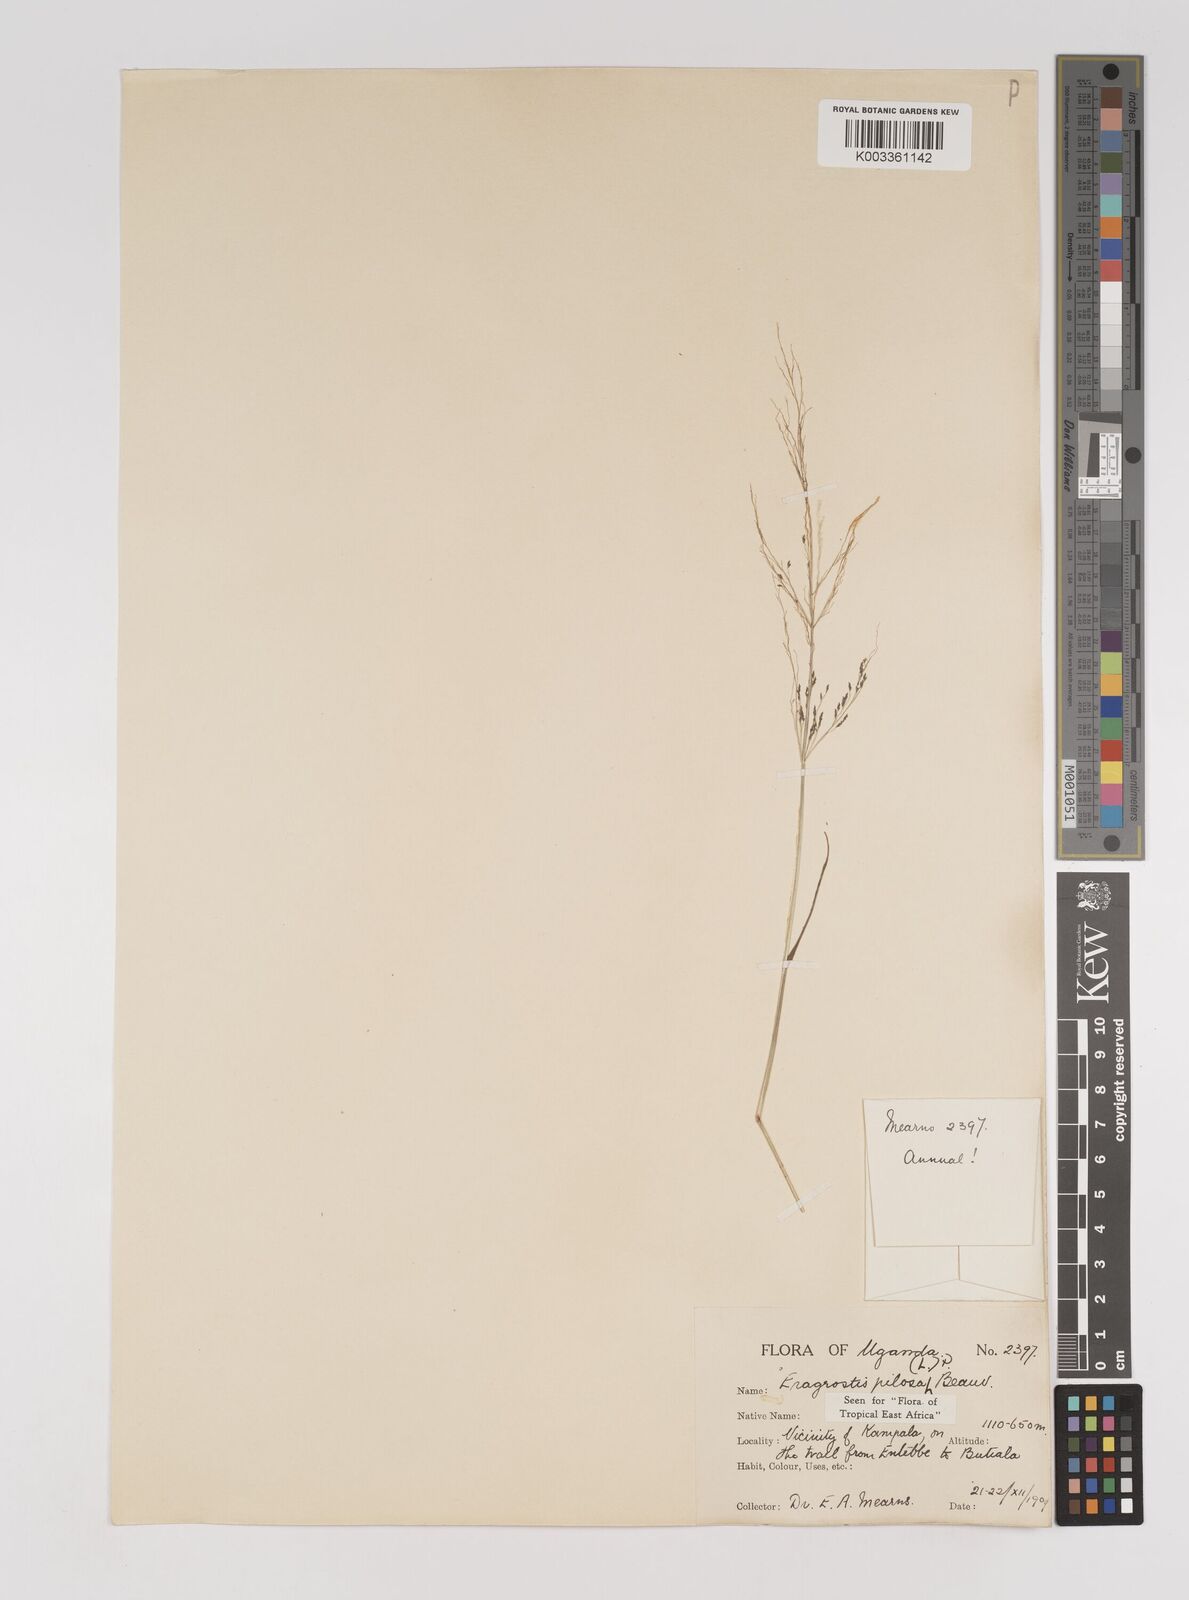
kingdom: Plantae
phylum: Tracheophyta
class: Liliopsida
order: Poales
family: Poaceae
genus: Eragrostis
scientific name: Eragrostis pilosa
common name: Indian lovegrass
